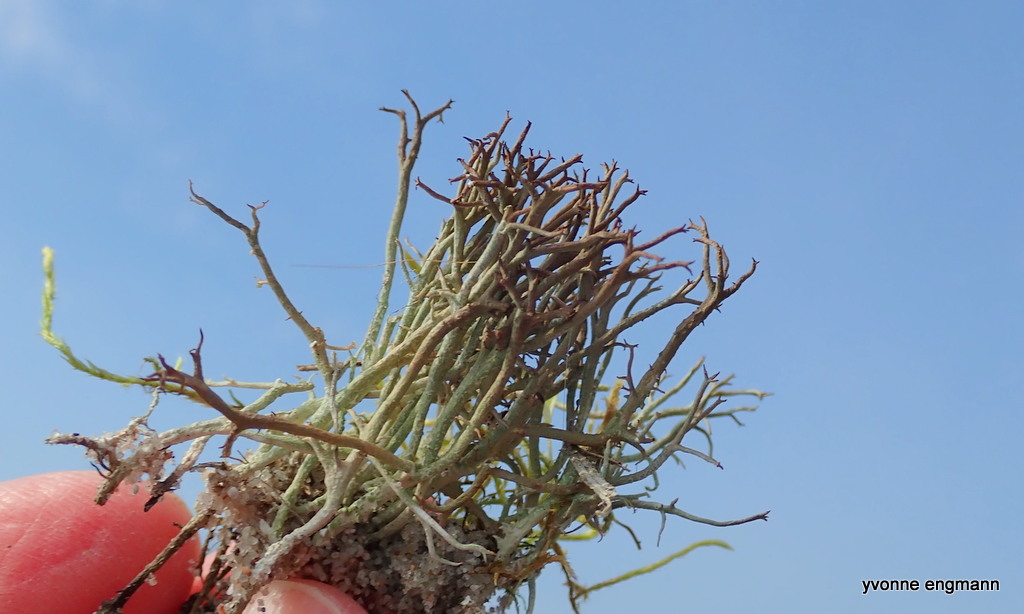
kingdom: Fungi
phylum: Ascomycota
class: Lecanoromycetes
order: Lecanorales
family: Cladoniaceae
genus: Cladonia
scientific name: Cladonia rangiformis
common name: spættet bægerlav
